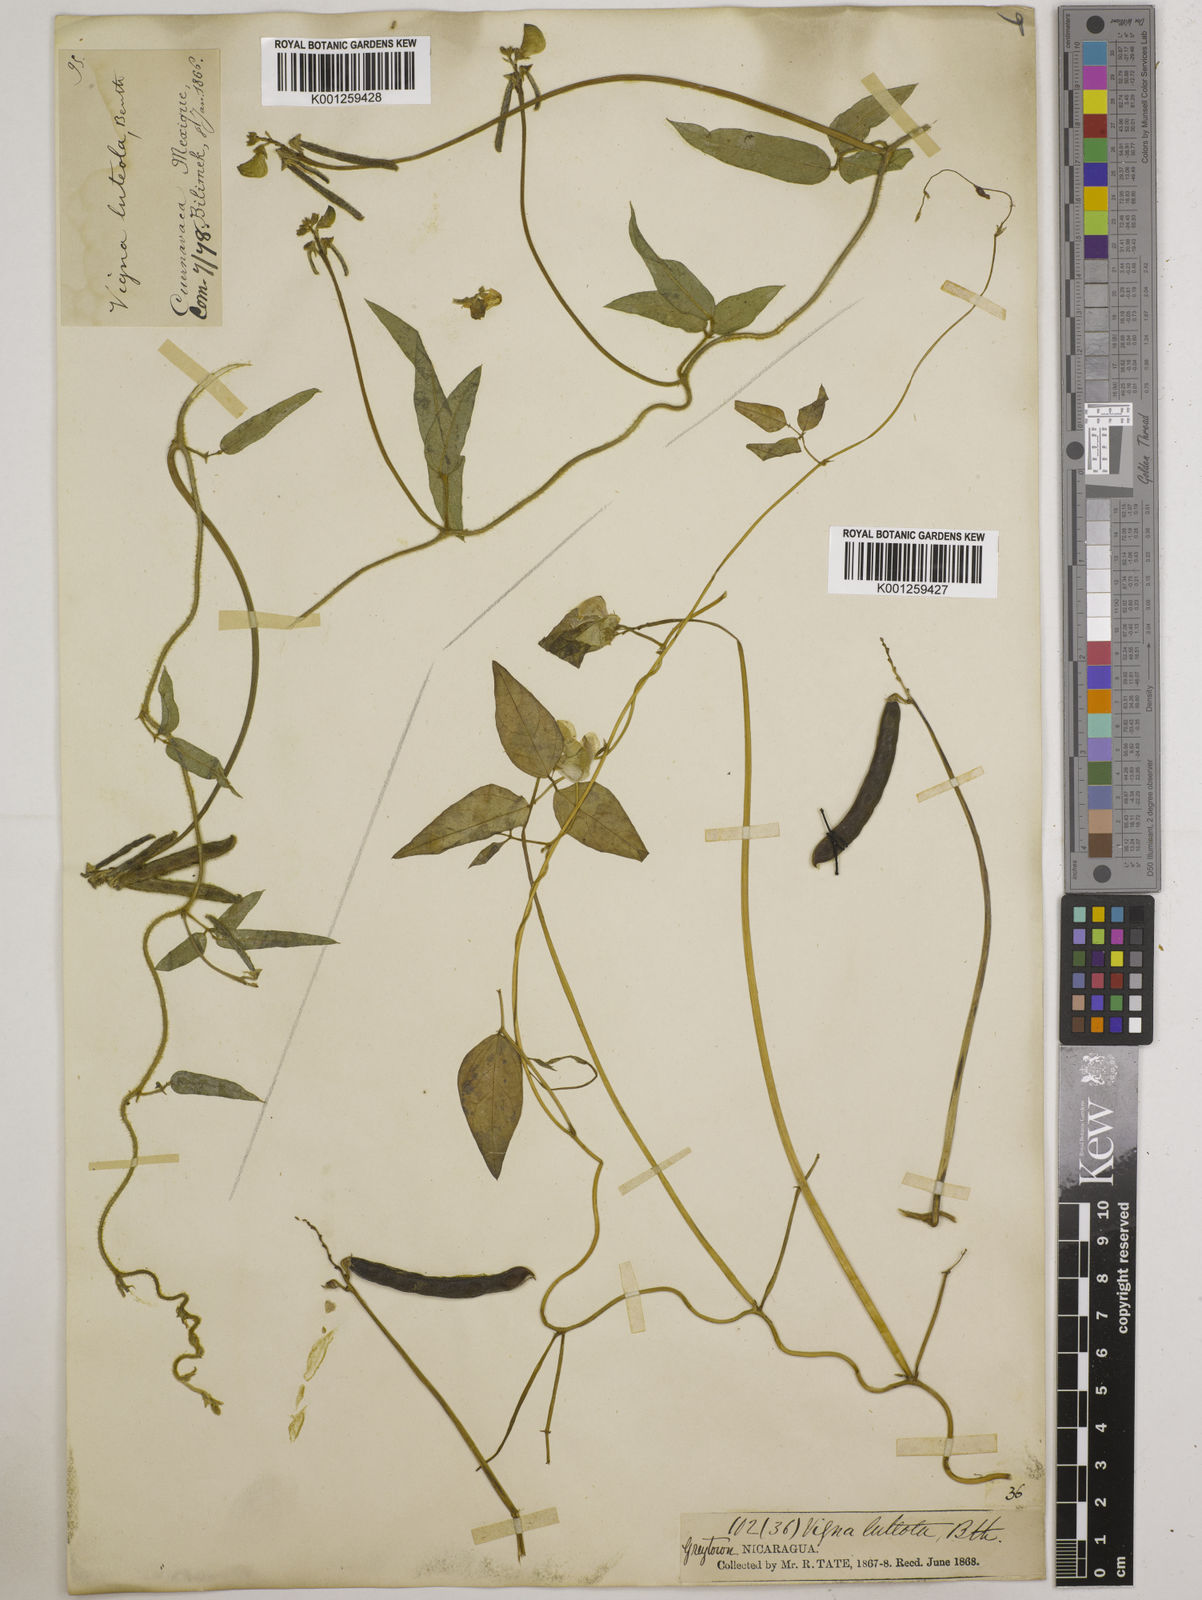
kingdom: Plantae
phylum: Tracheophyta
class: Magnoliopsida
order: Fabales
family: Fabaceae
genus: Vigna
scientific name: Vigna luteola
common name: Hairypod cowpea
